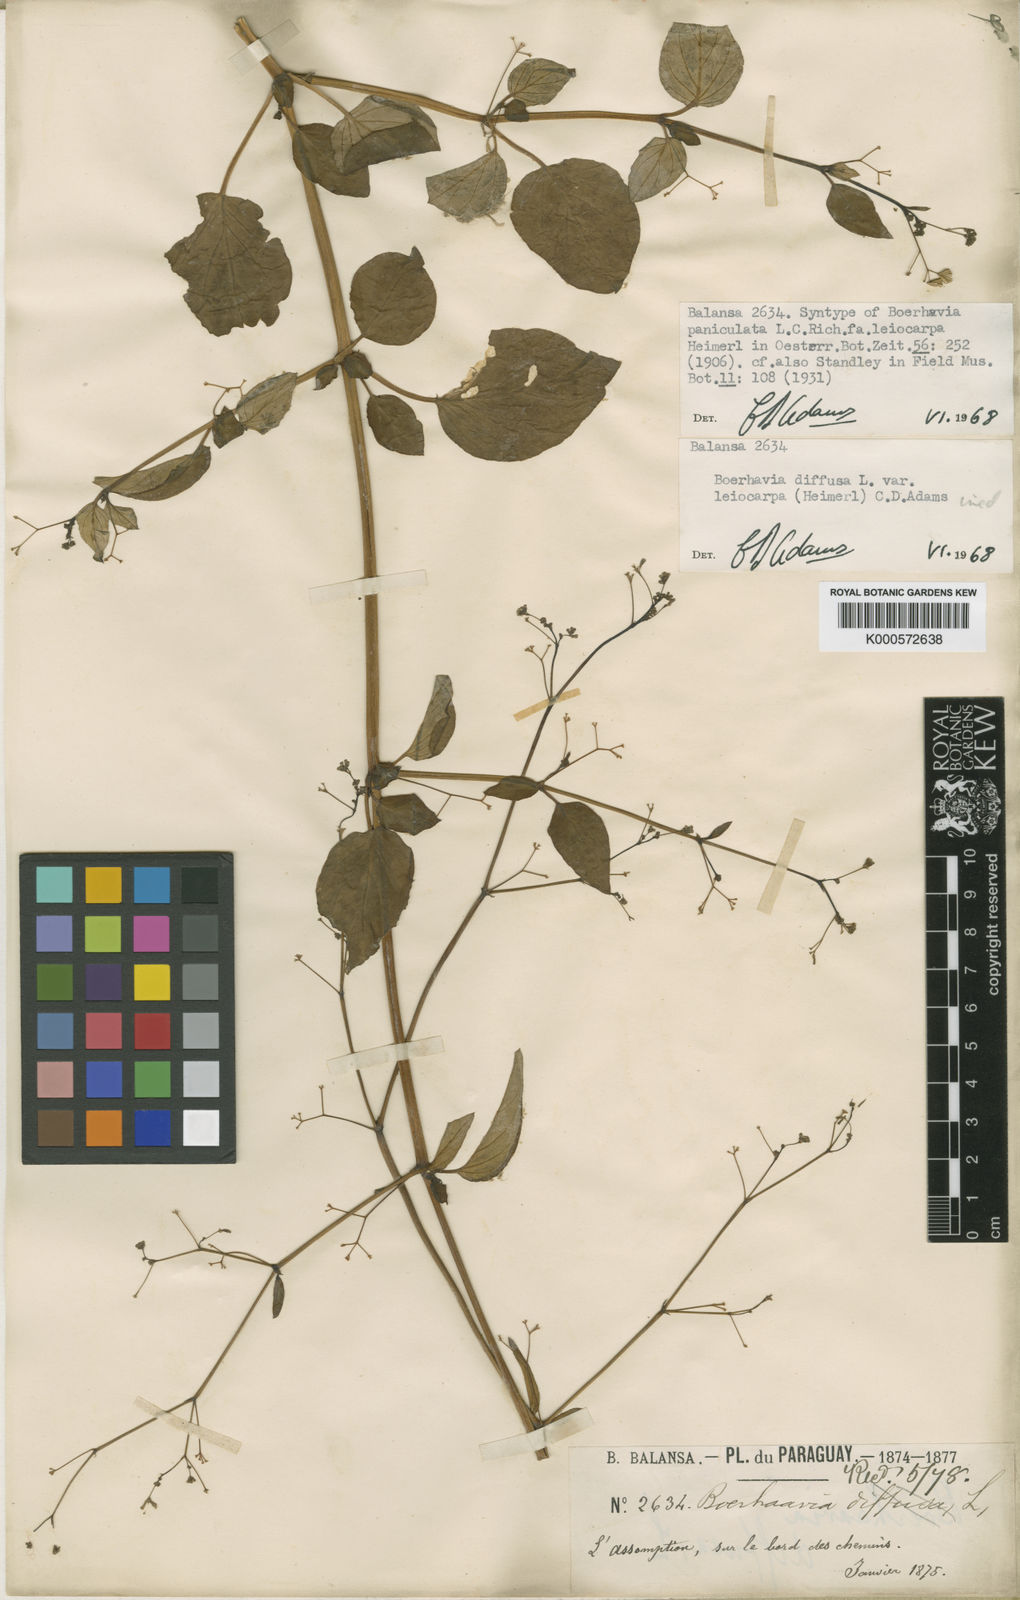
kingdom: Plantae
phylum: Tracheophyta
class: Magnoliopsida
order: Caryophyllales
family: Nyctaginaceae
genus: Boerhavia
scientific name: Boerhavia diffusa
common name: Red spiderling
